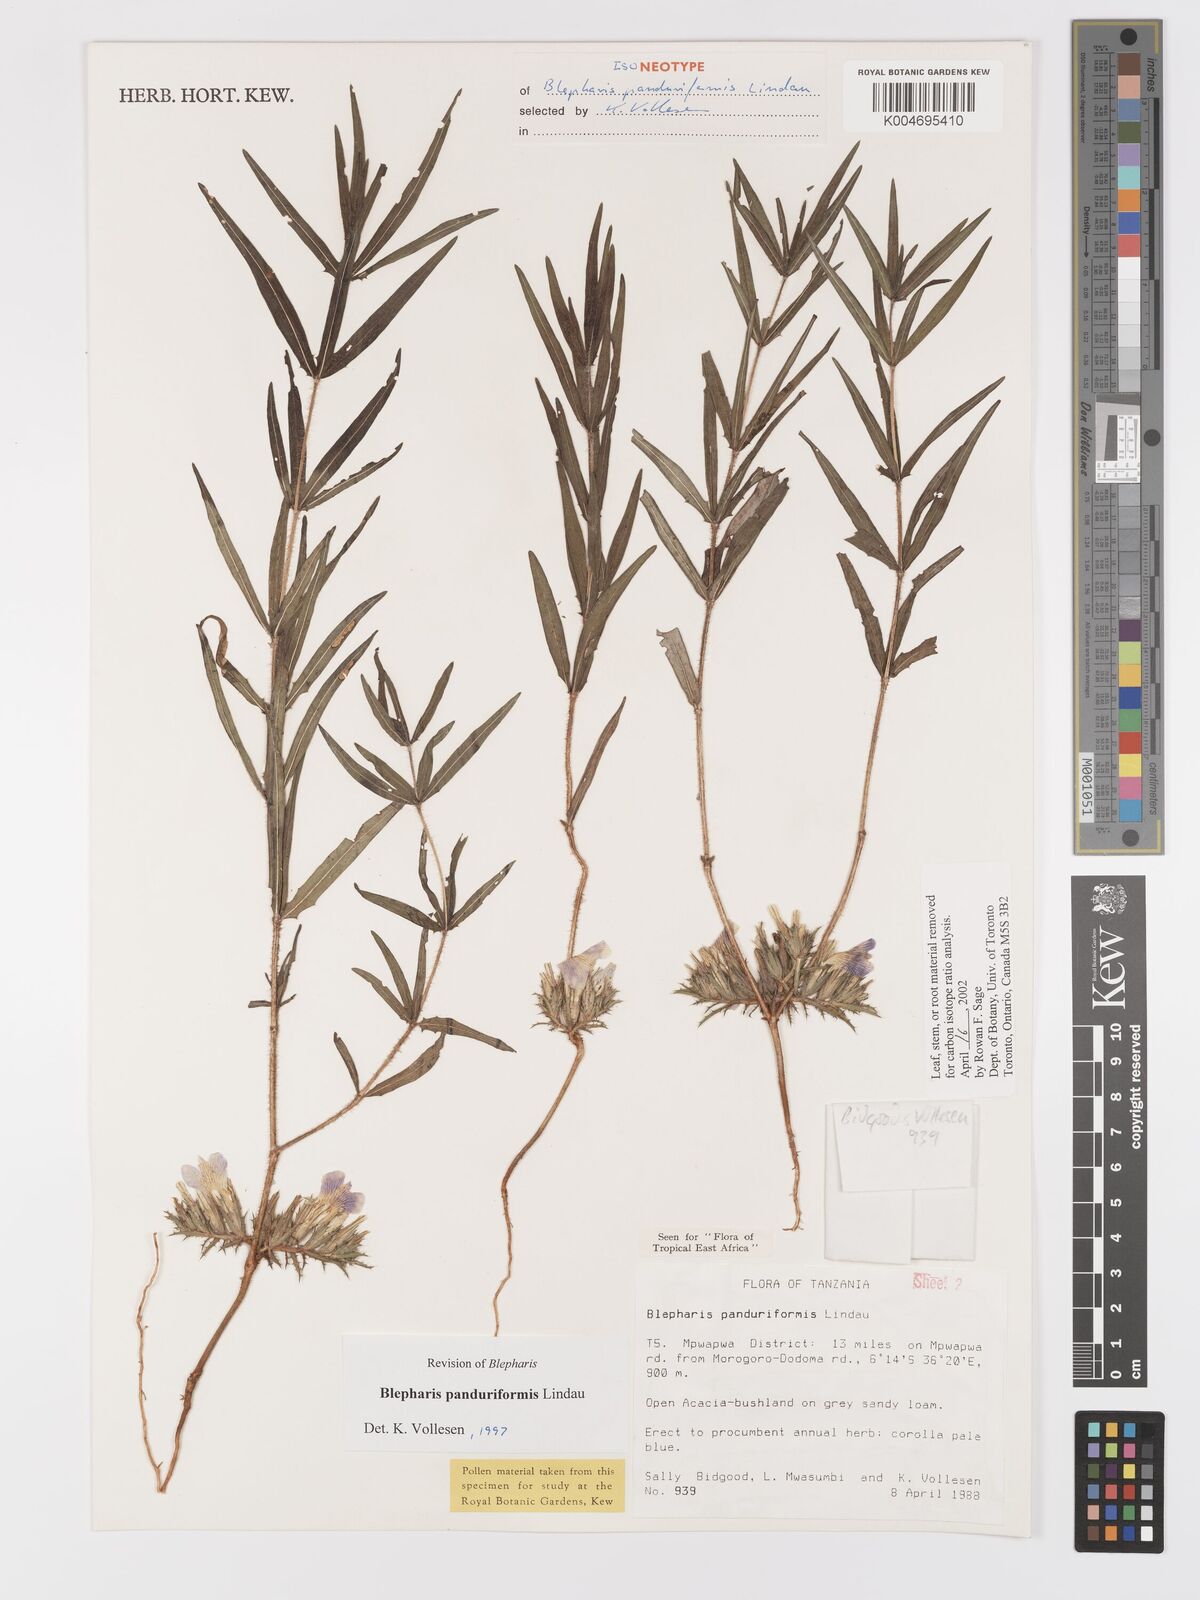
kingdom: Plantae
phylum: Tracheophyta
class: Magnoliopsida
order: Lamiales
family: Acanthaceae
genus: Blepharis
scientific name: Blepharis panduriformis
